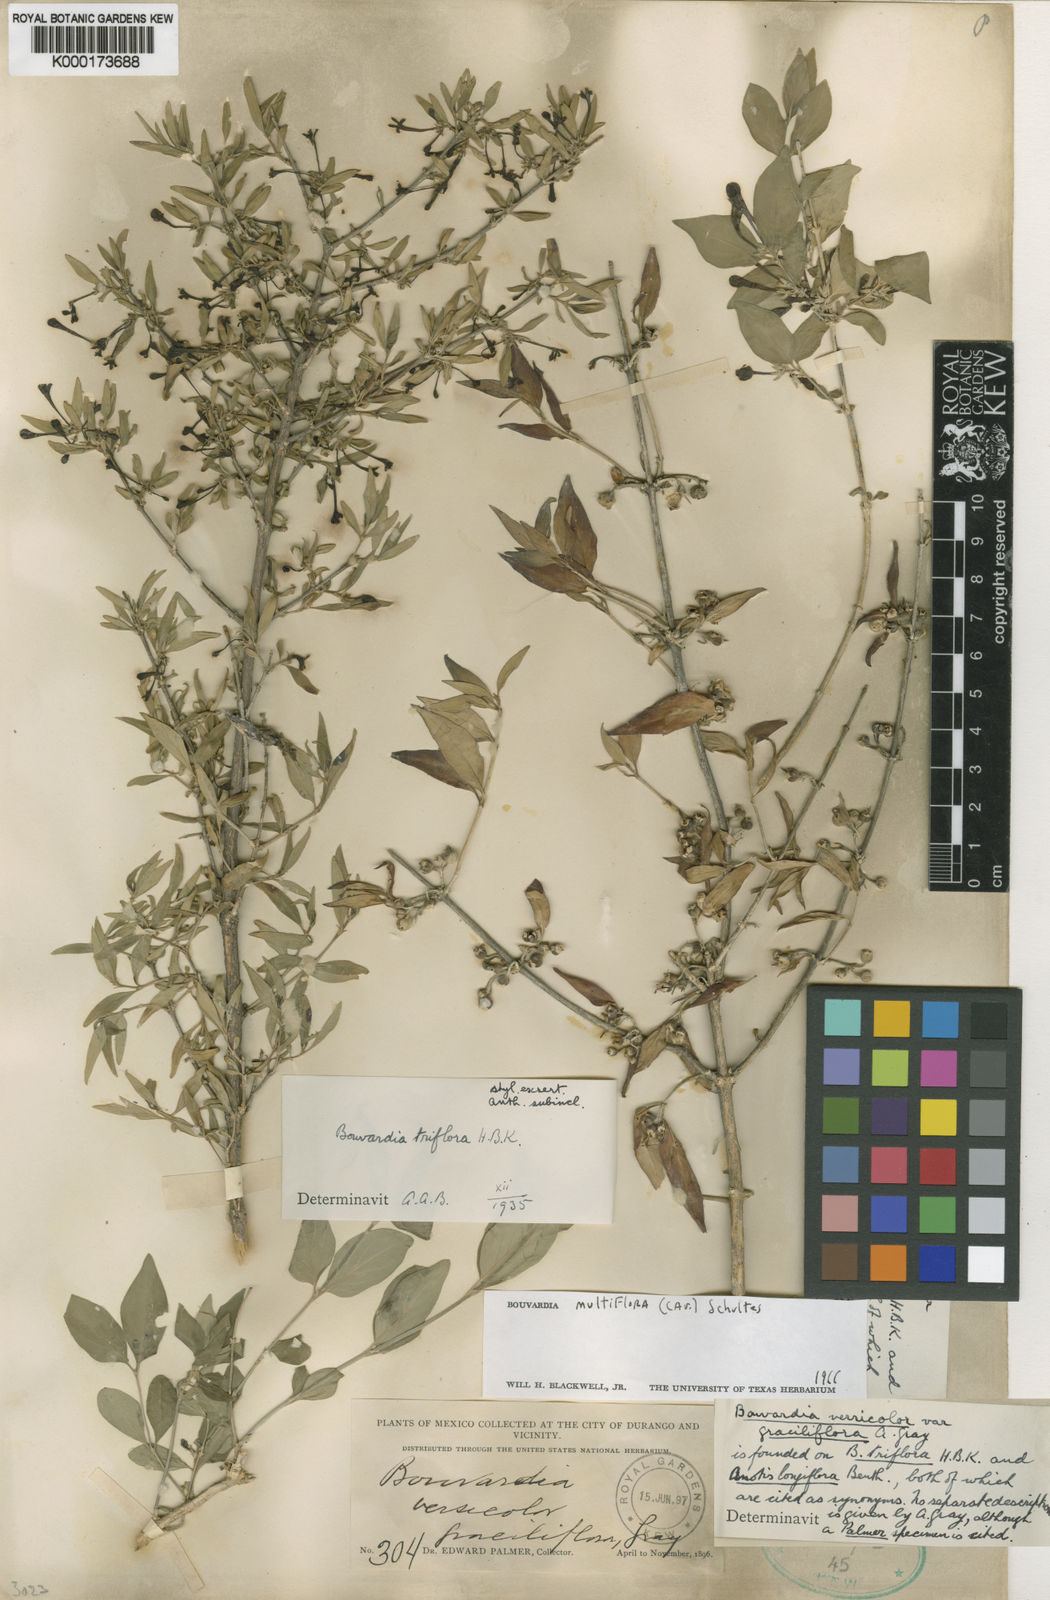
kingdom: Plantae
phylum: Tracheophyta
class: Magnoliopsida
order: Gentianales
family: Rubiaceae
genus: Bouvardia
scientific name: Bouvardia multiflora
